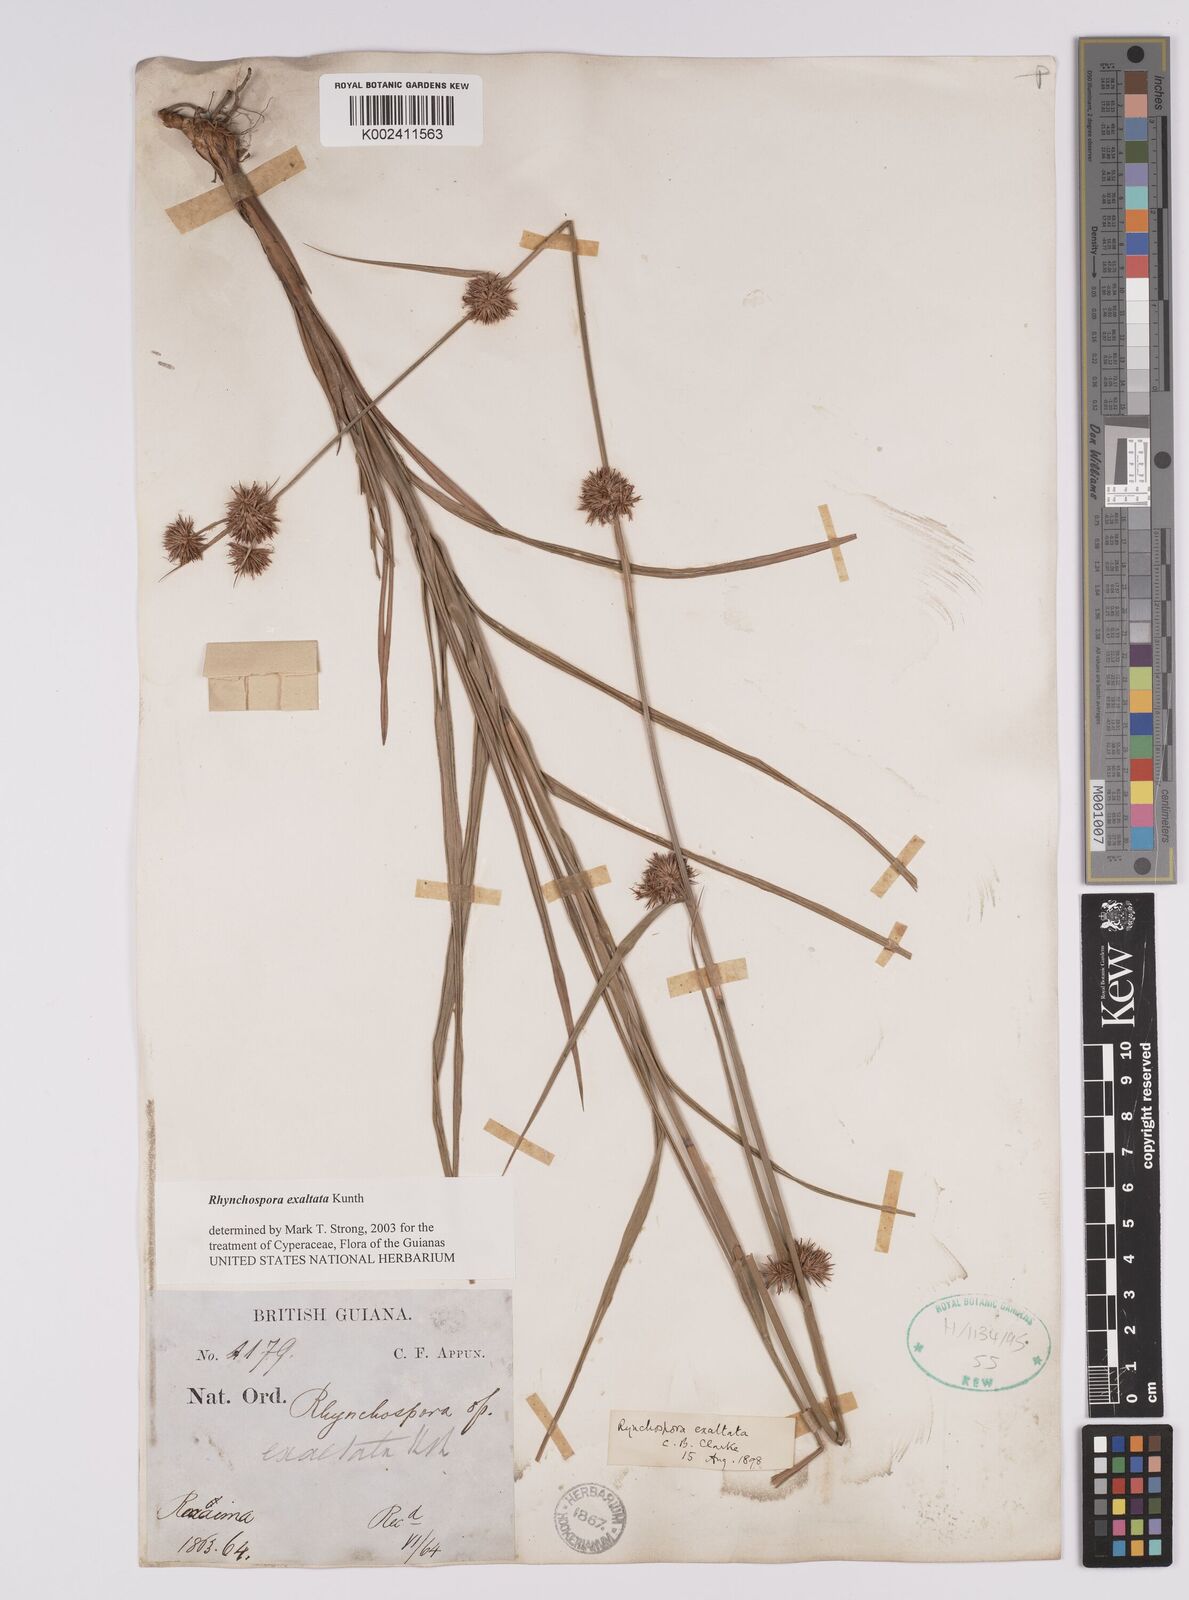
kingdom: Plantae
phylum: Tracheophyta
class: Liliopsida
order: Poales
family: Cyperaceae
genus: Rhynchospora
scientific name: Rhynchospora exaltata
